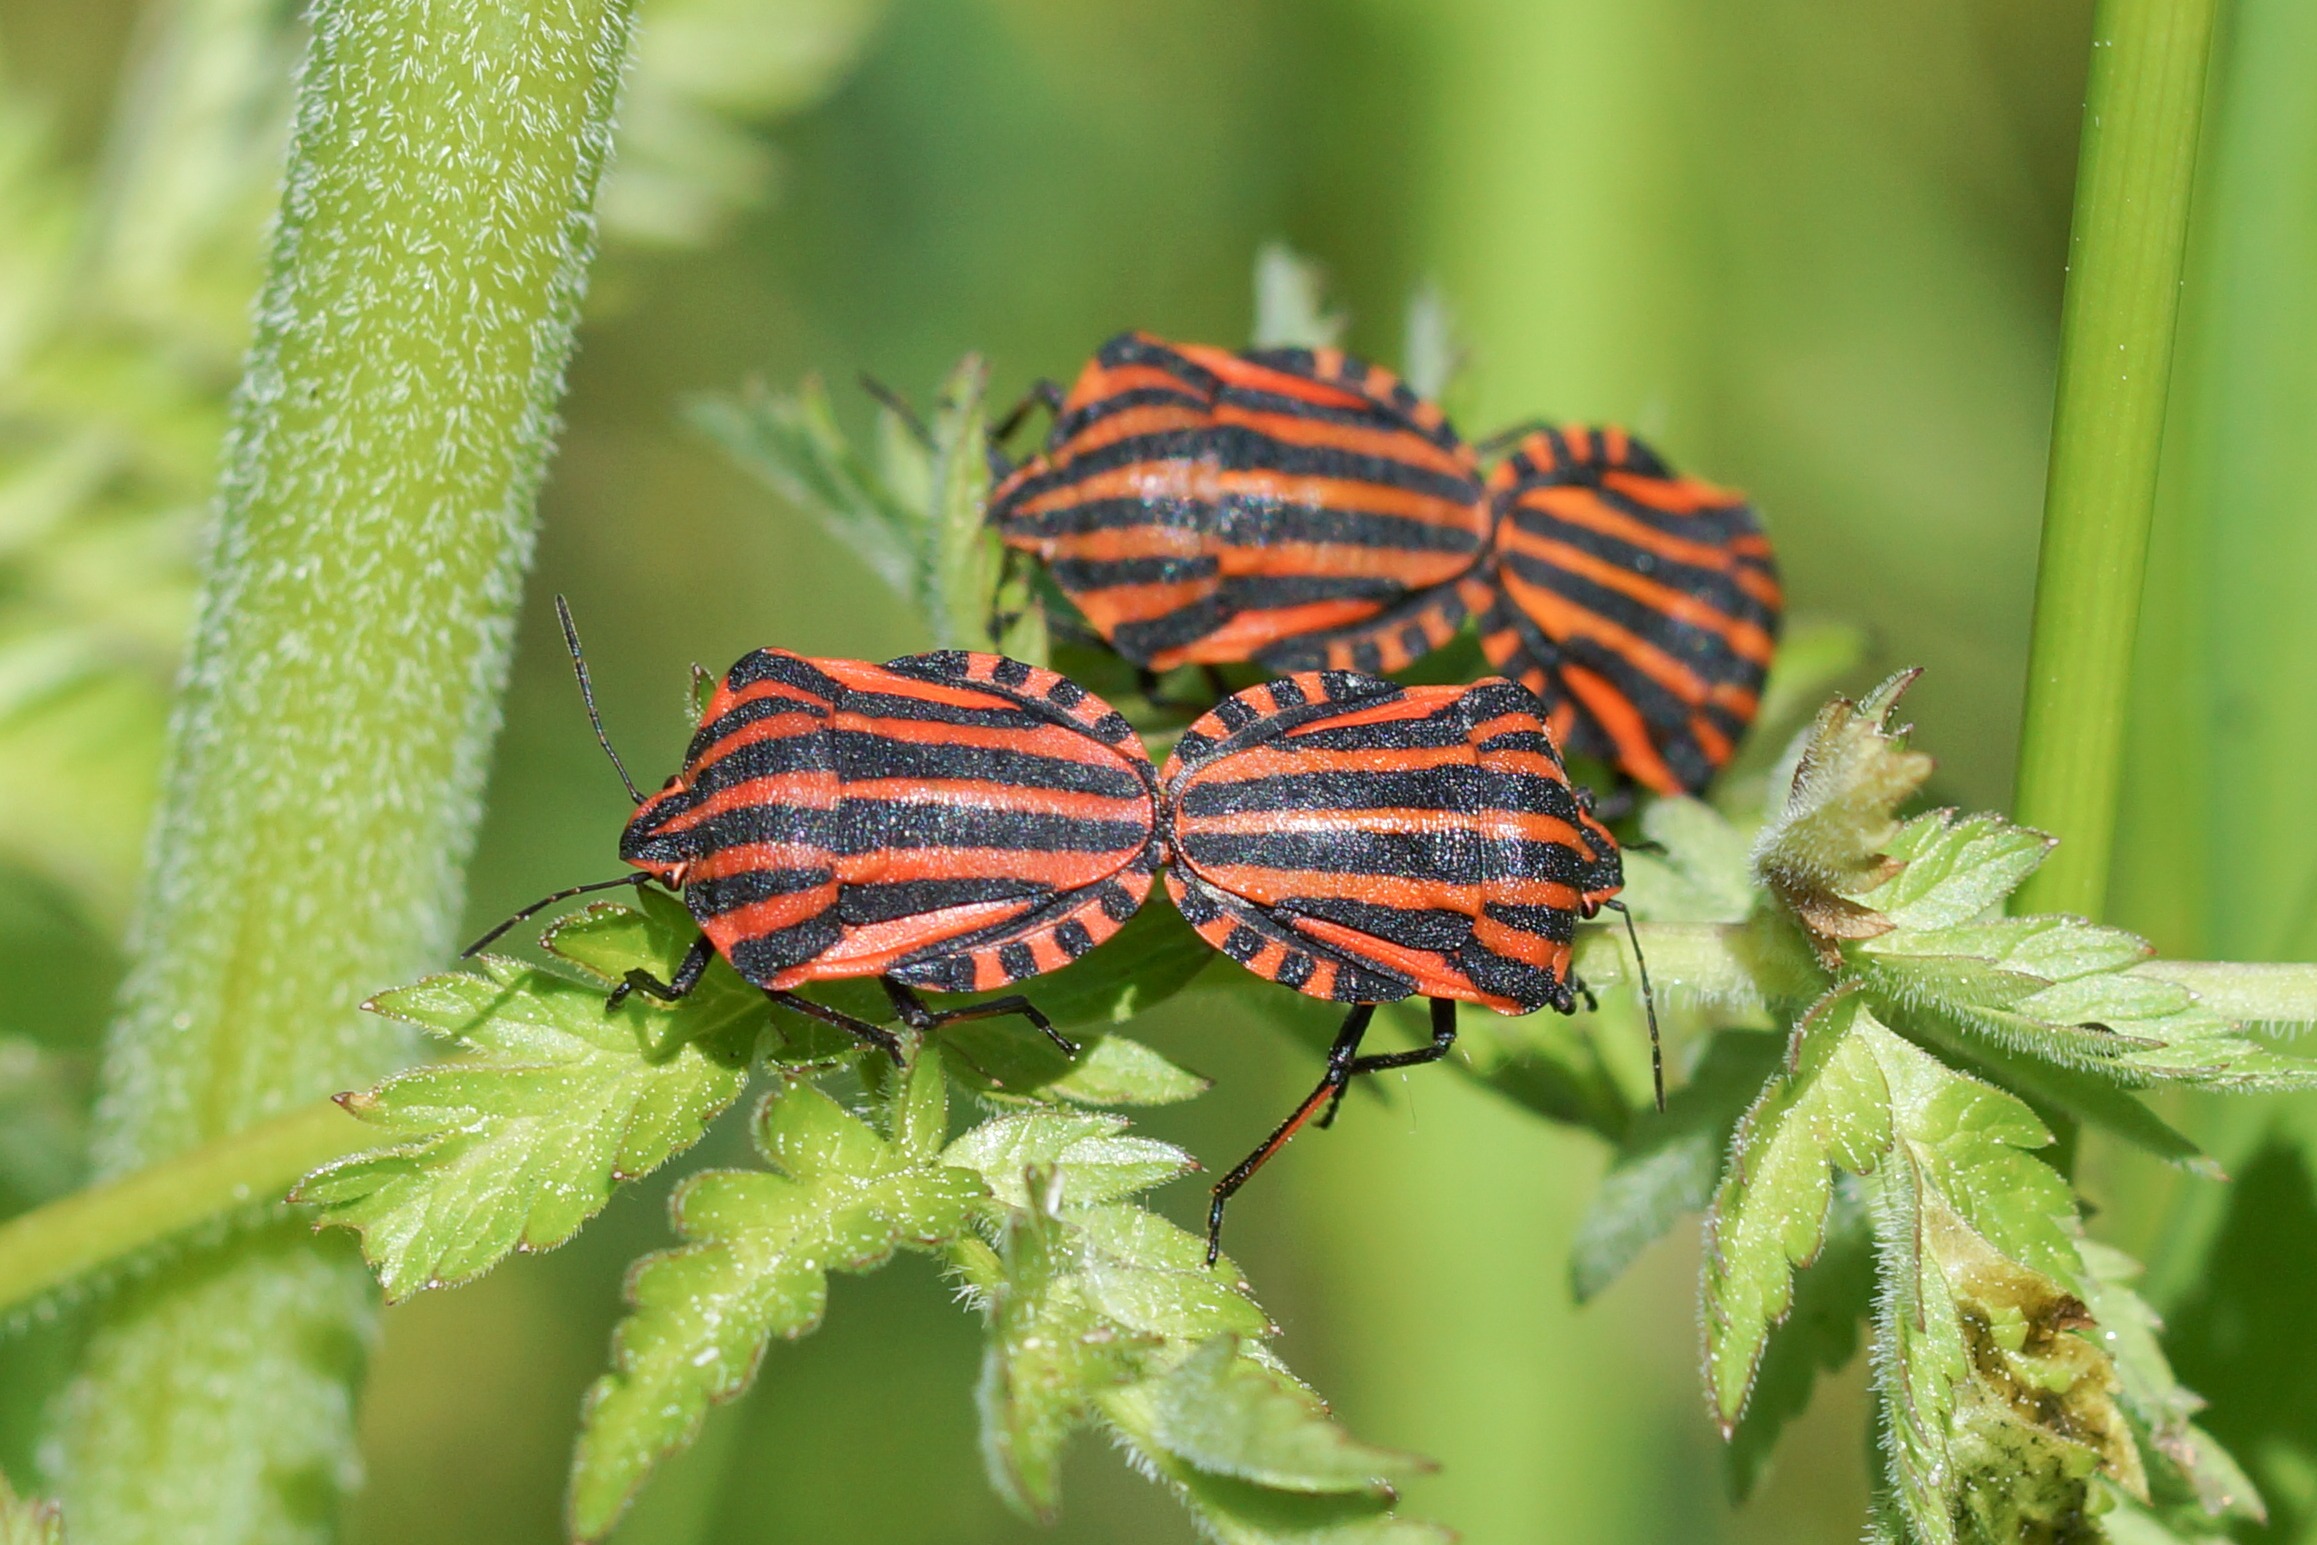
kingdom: Animalia
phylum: Arthropoda
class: Insecta
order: Hemiptera
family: Pentatomidae
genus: Graphosoma
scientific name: Graphosoma italicum
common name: Stribetæge
